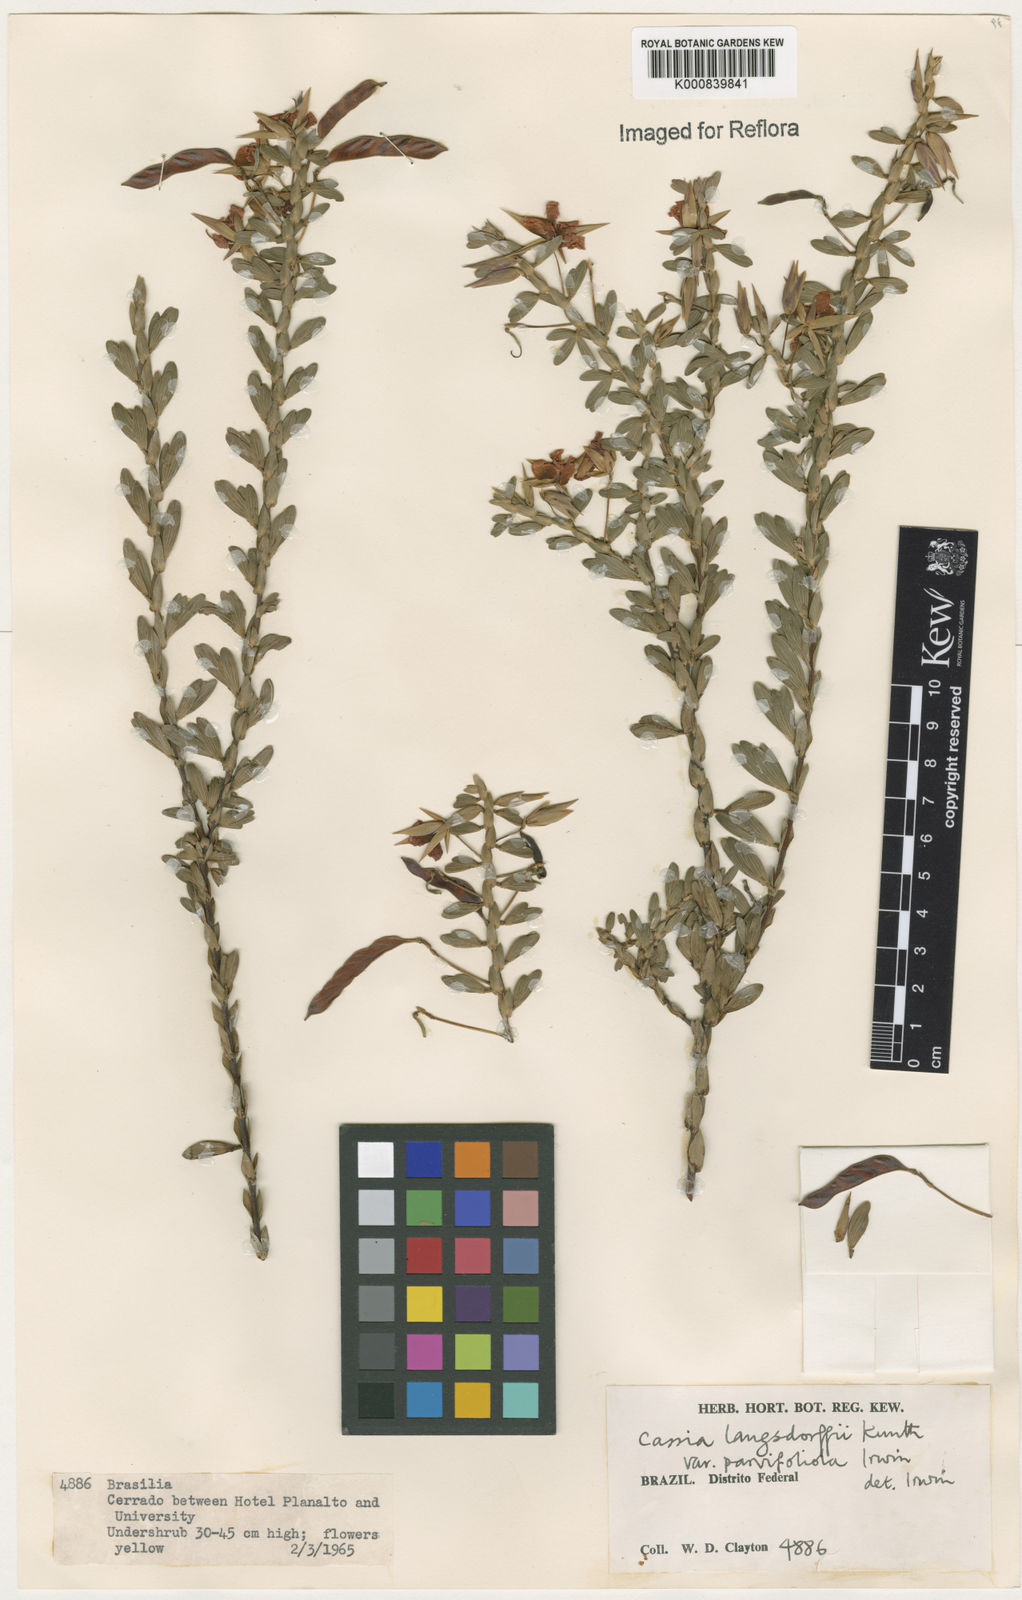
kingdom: Plantae
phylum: Tracheophyta
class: Magnoliopsida
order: Fabales
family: Fabaceae
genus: Chamaecrista
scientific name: Chamaecrista ramosa
